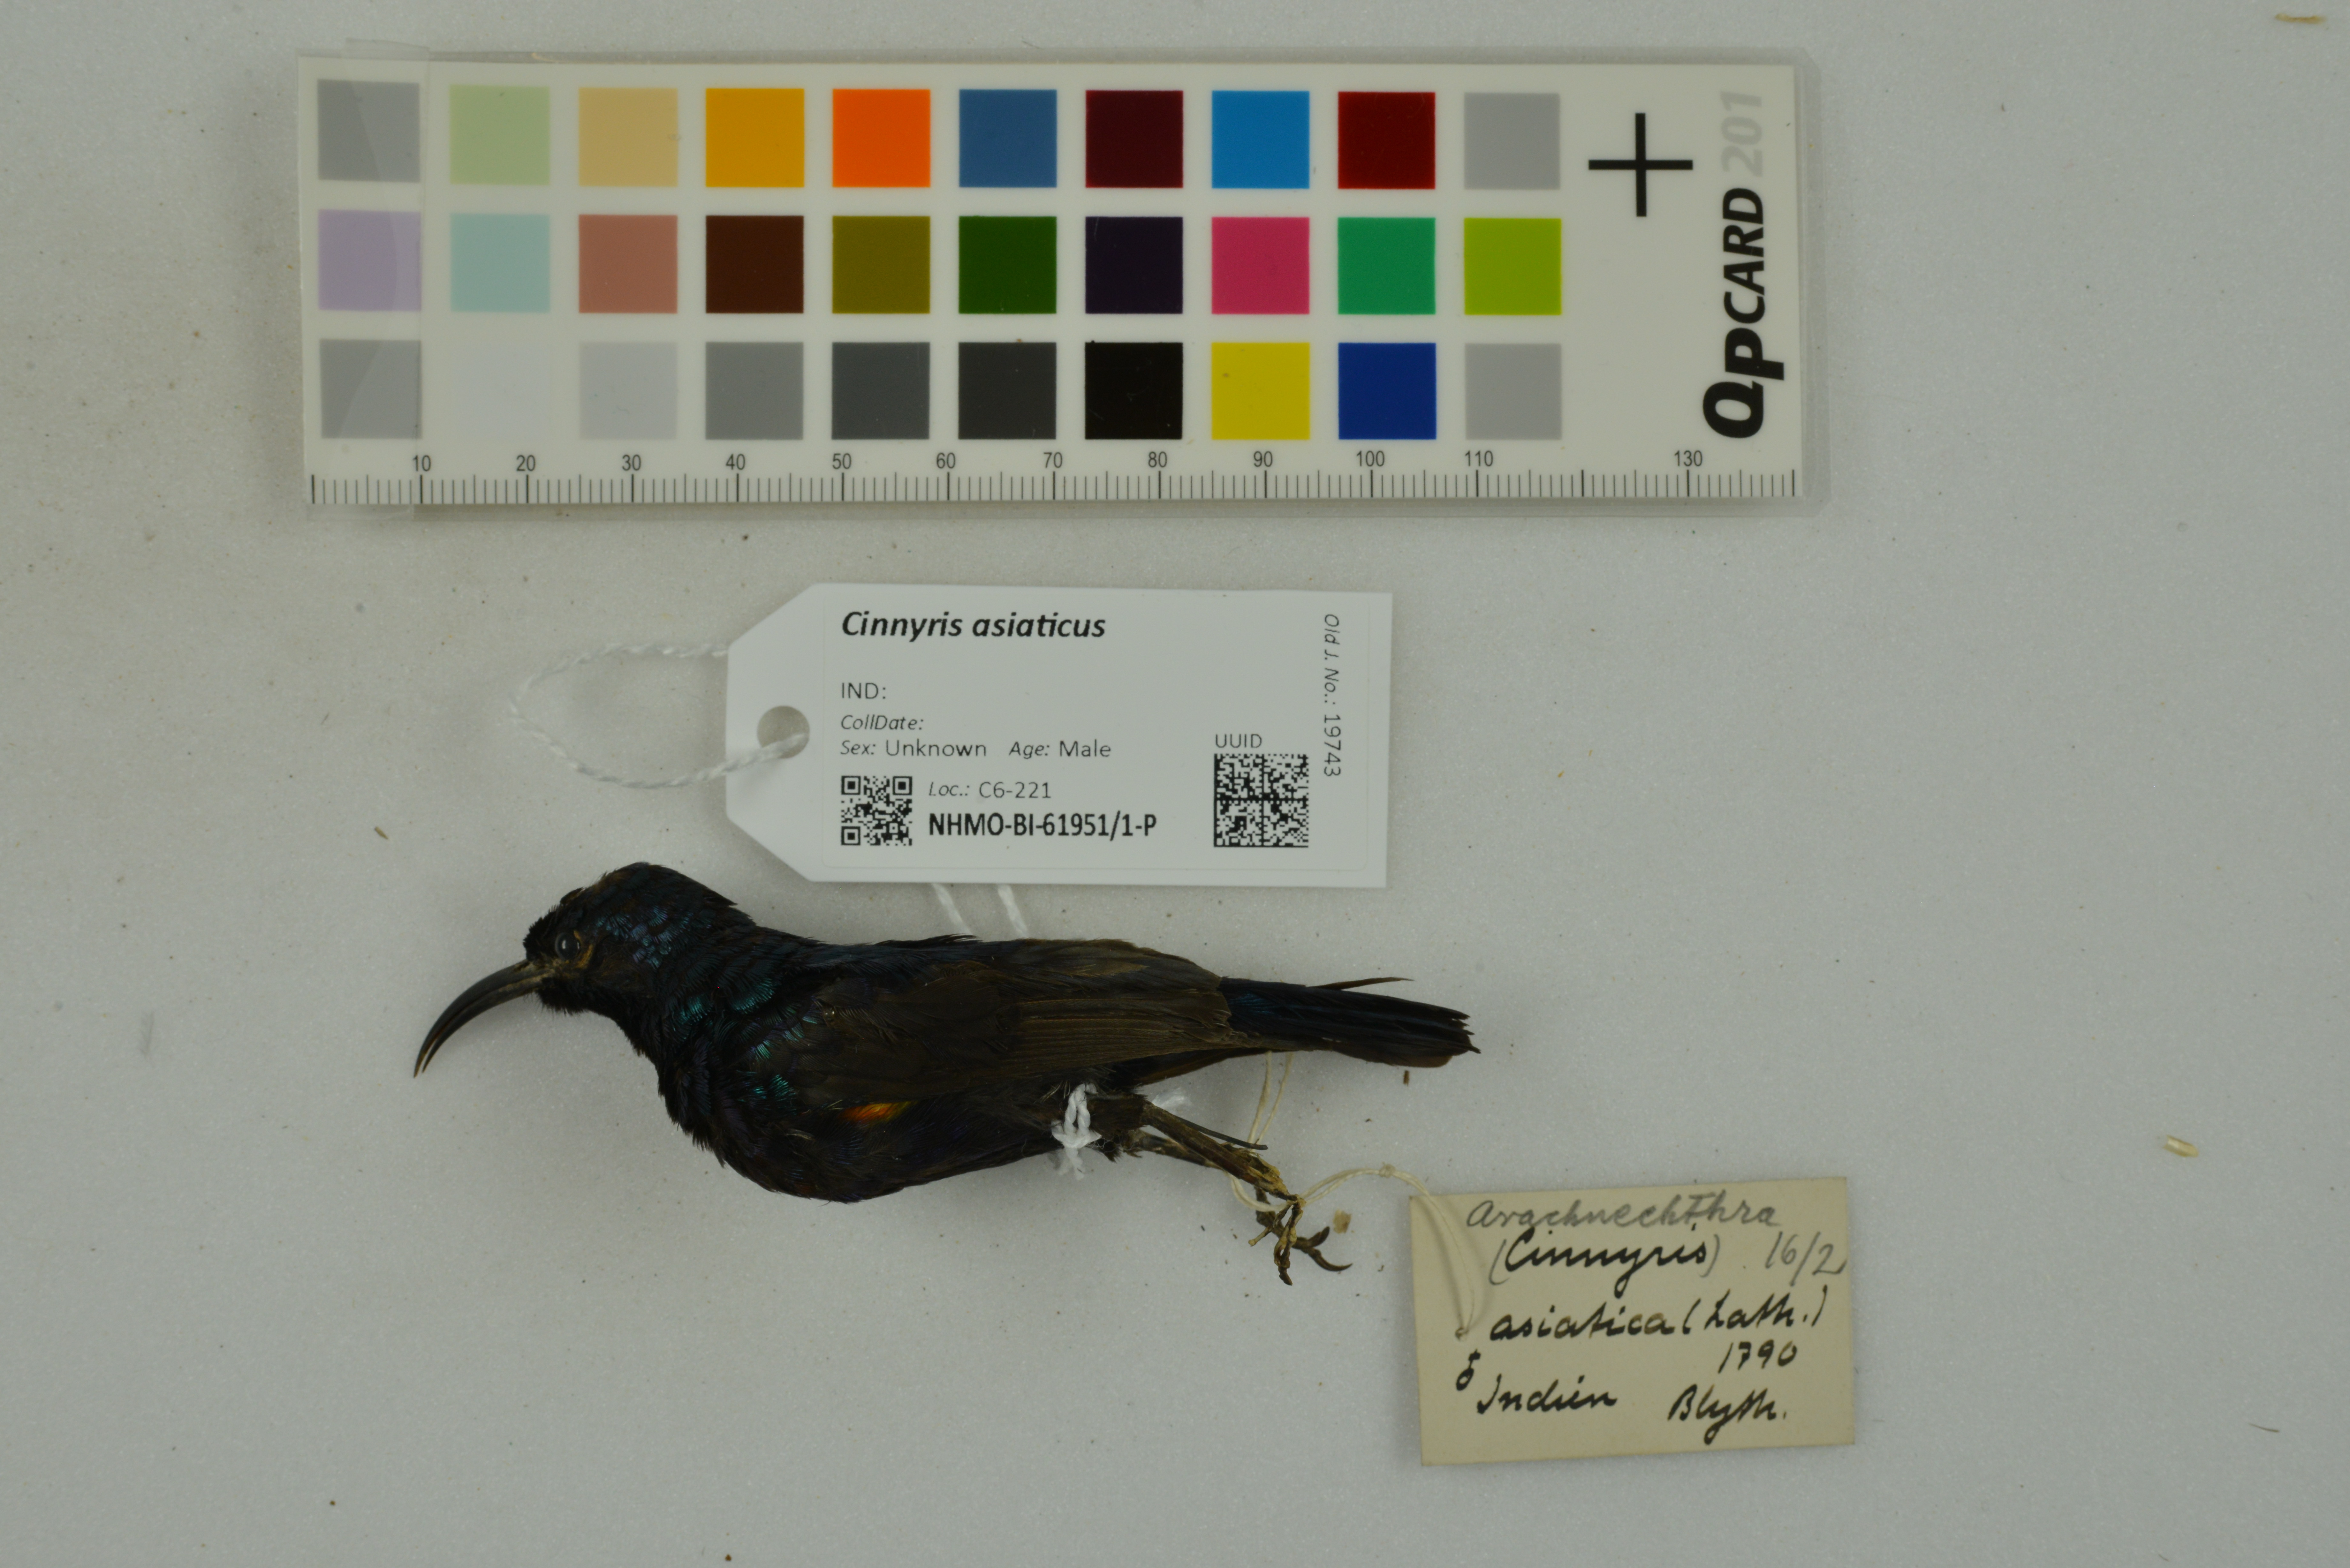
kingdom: Animalia
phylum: Chordata
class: Aves
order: Passeriformes
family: Nectariniidae
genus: Cinnyris
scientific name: Cinnyris asiaticus
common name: Purple sunbird
